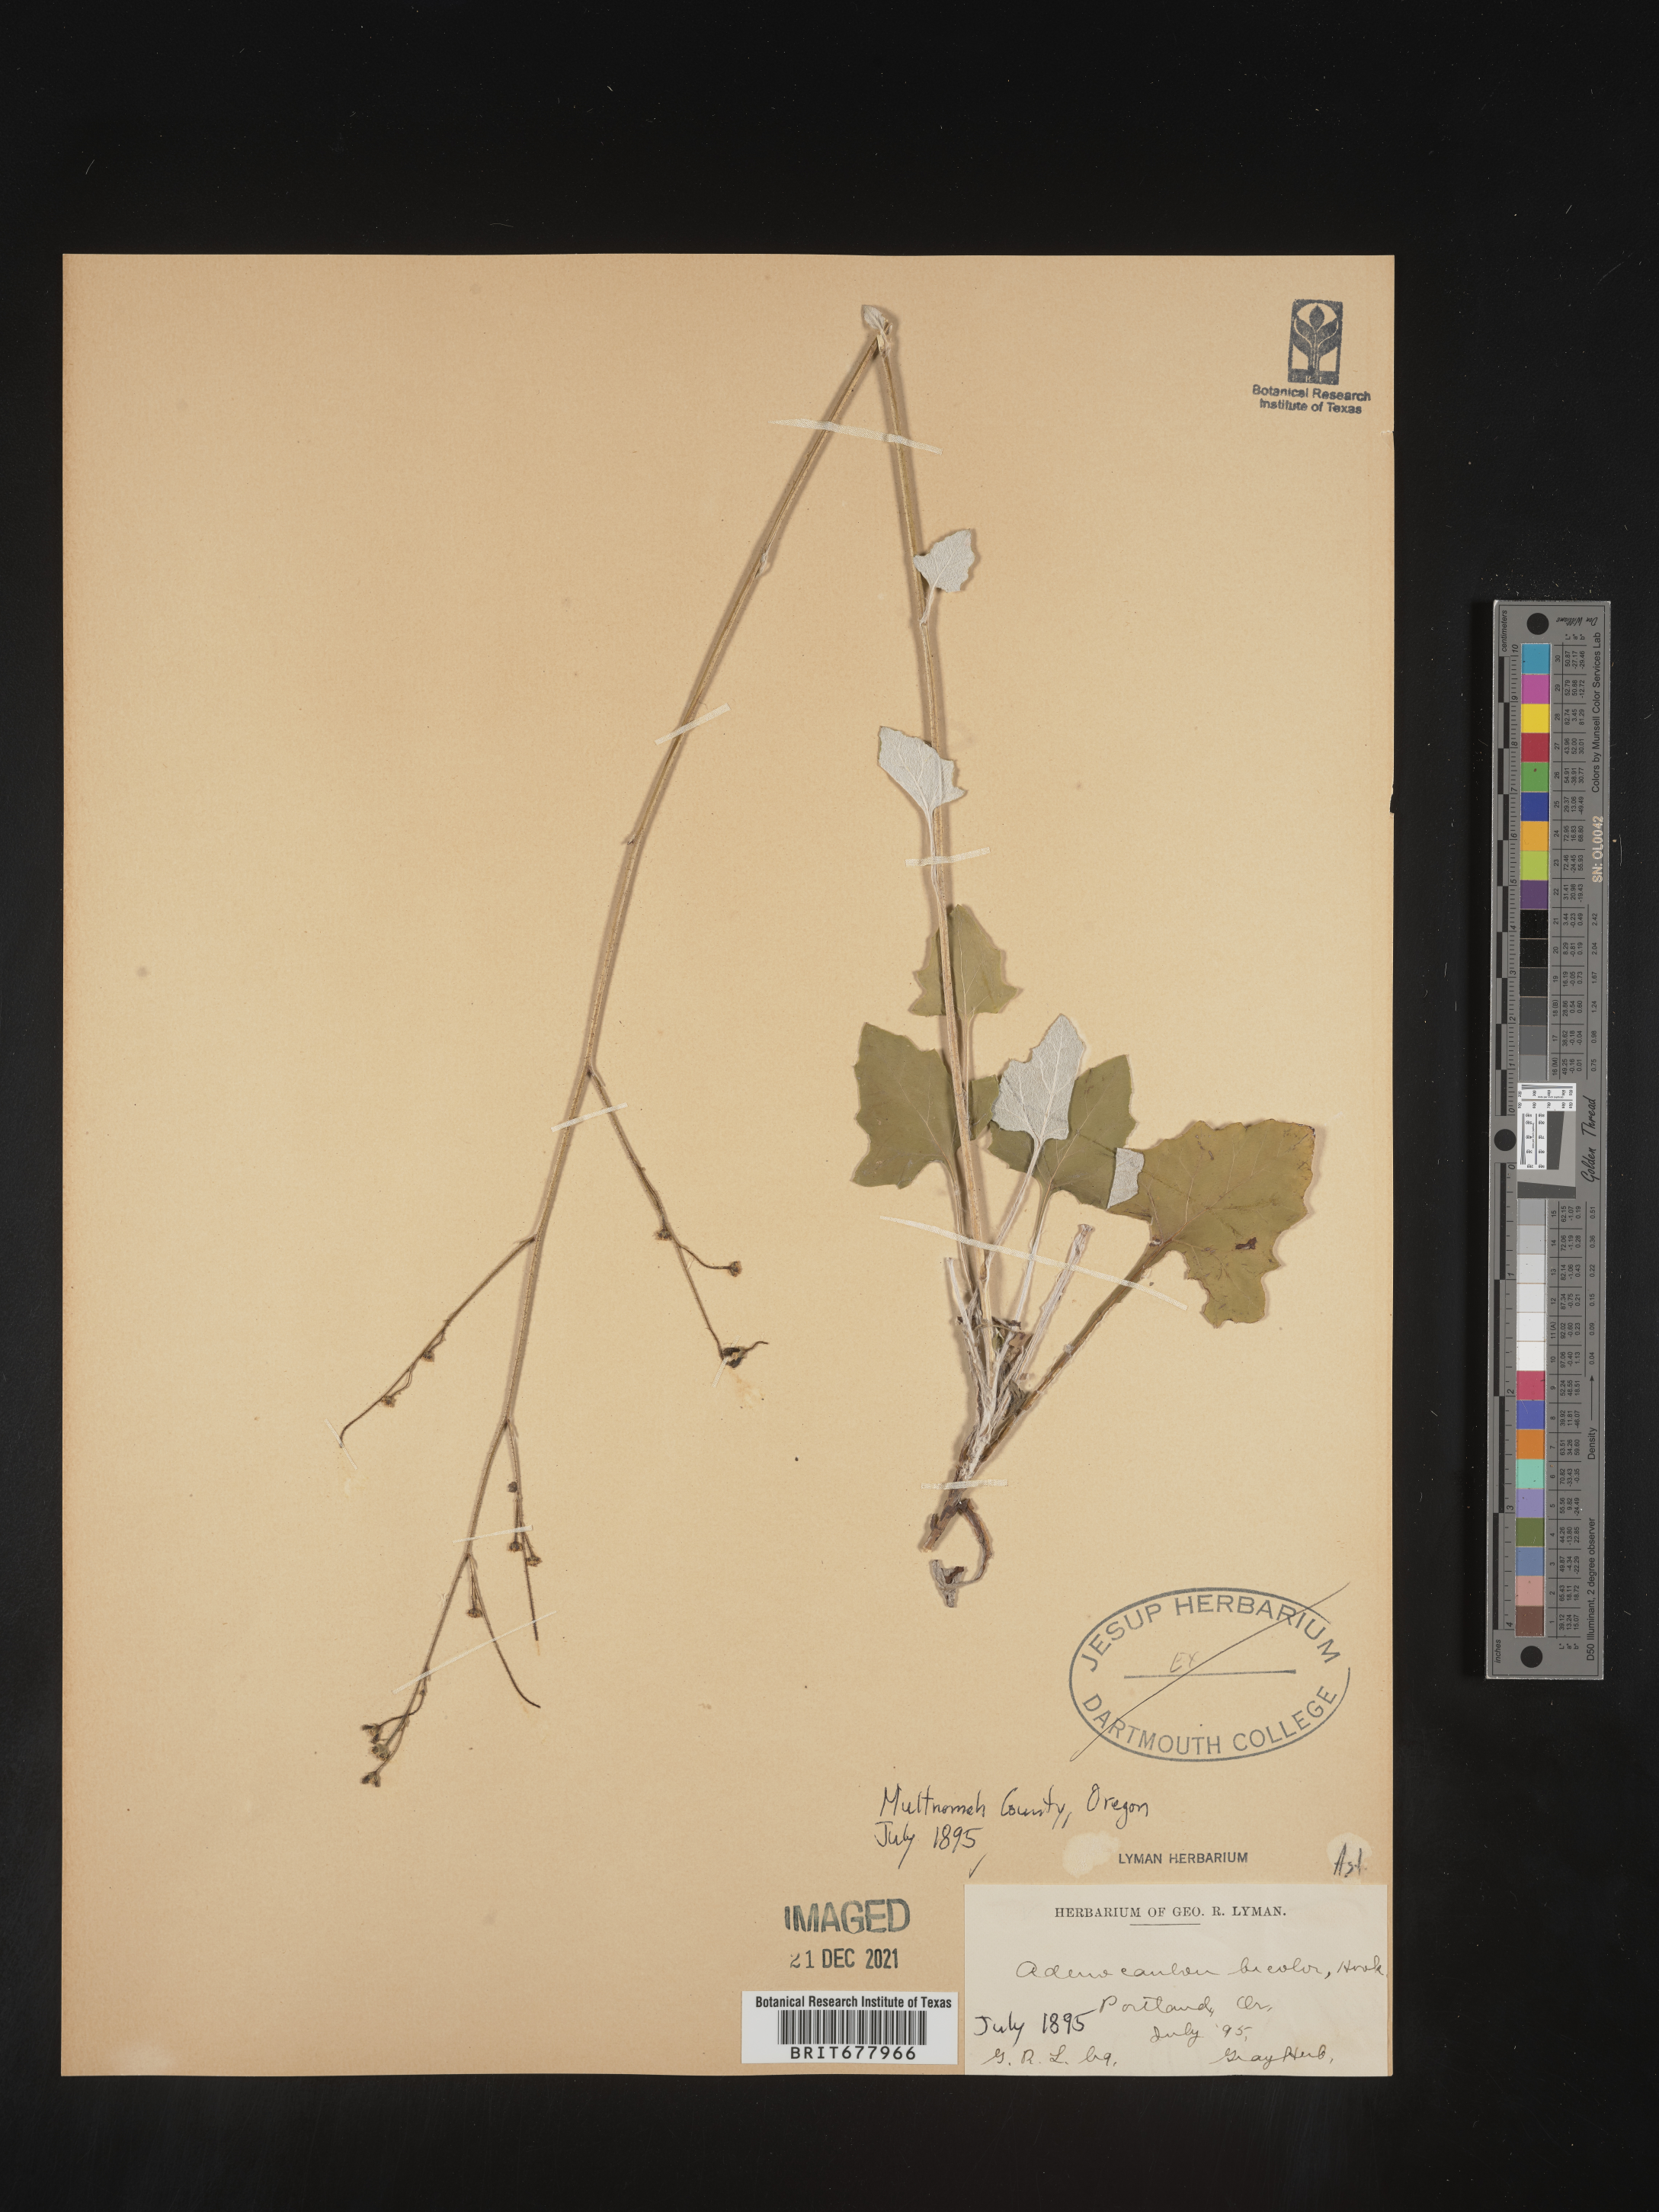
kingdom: Plantae
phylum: Tracheophyta
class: Magnoliopsida
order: Asterales
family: Asteraceae
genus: Adenocaulon
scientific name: Adenocaulon
